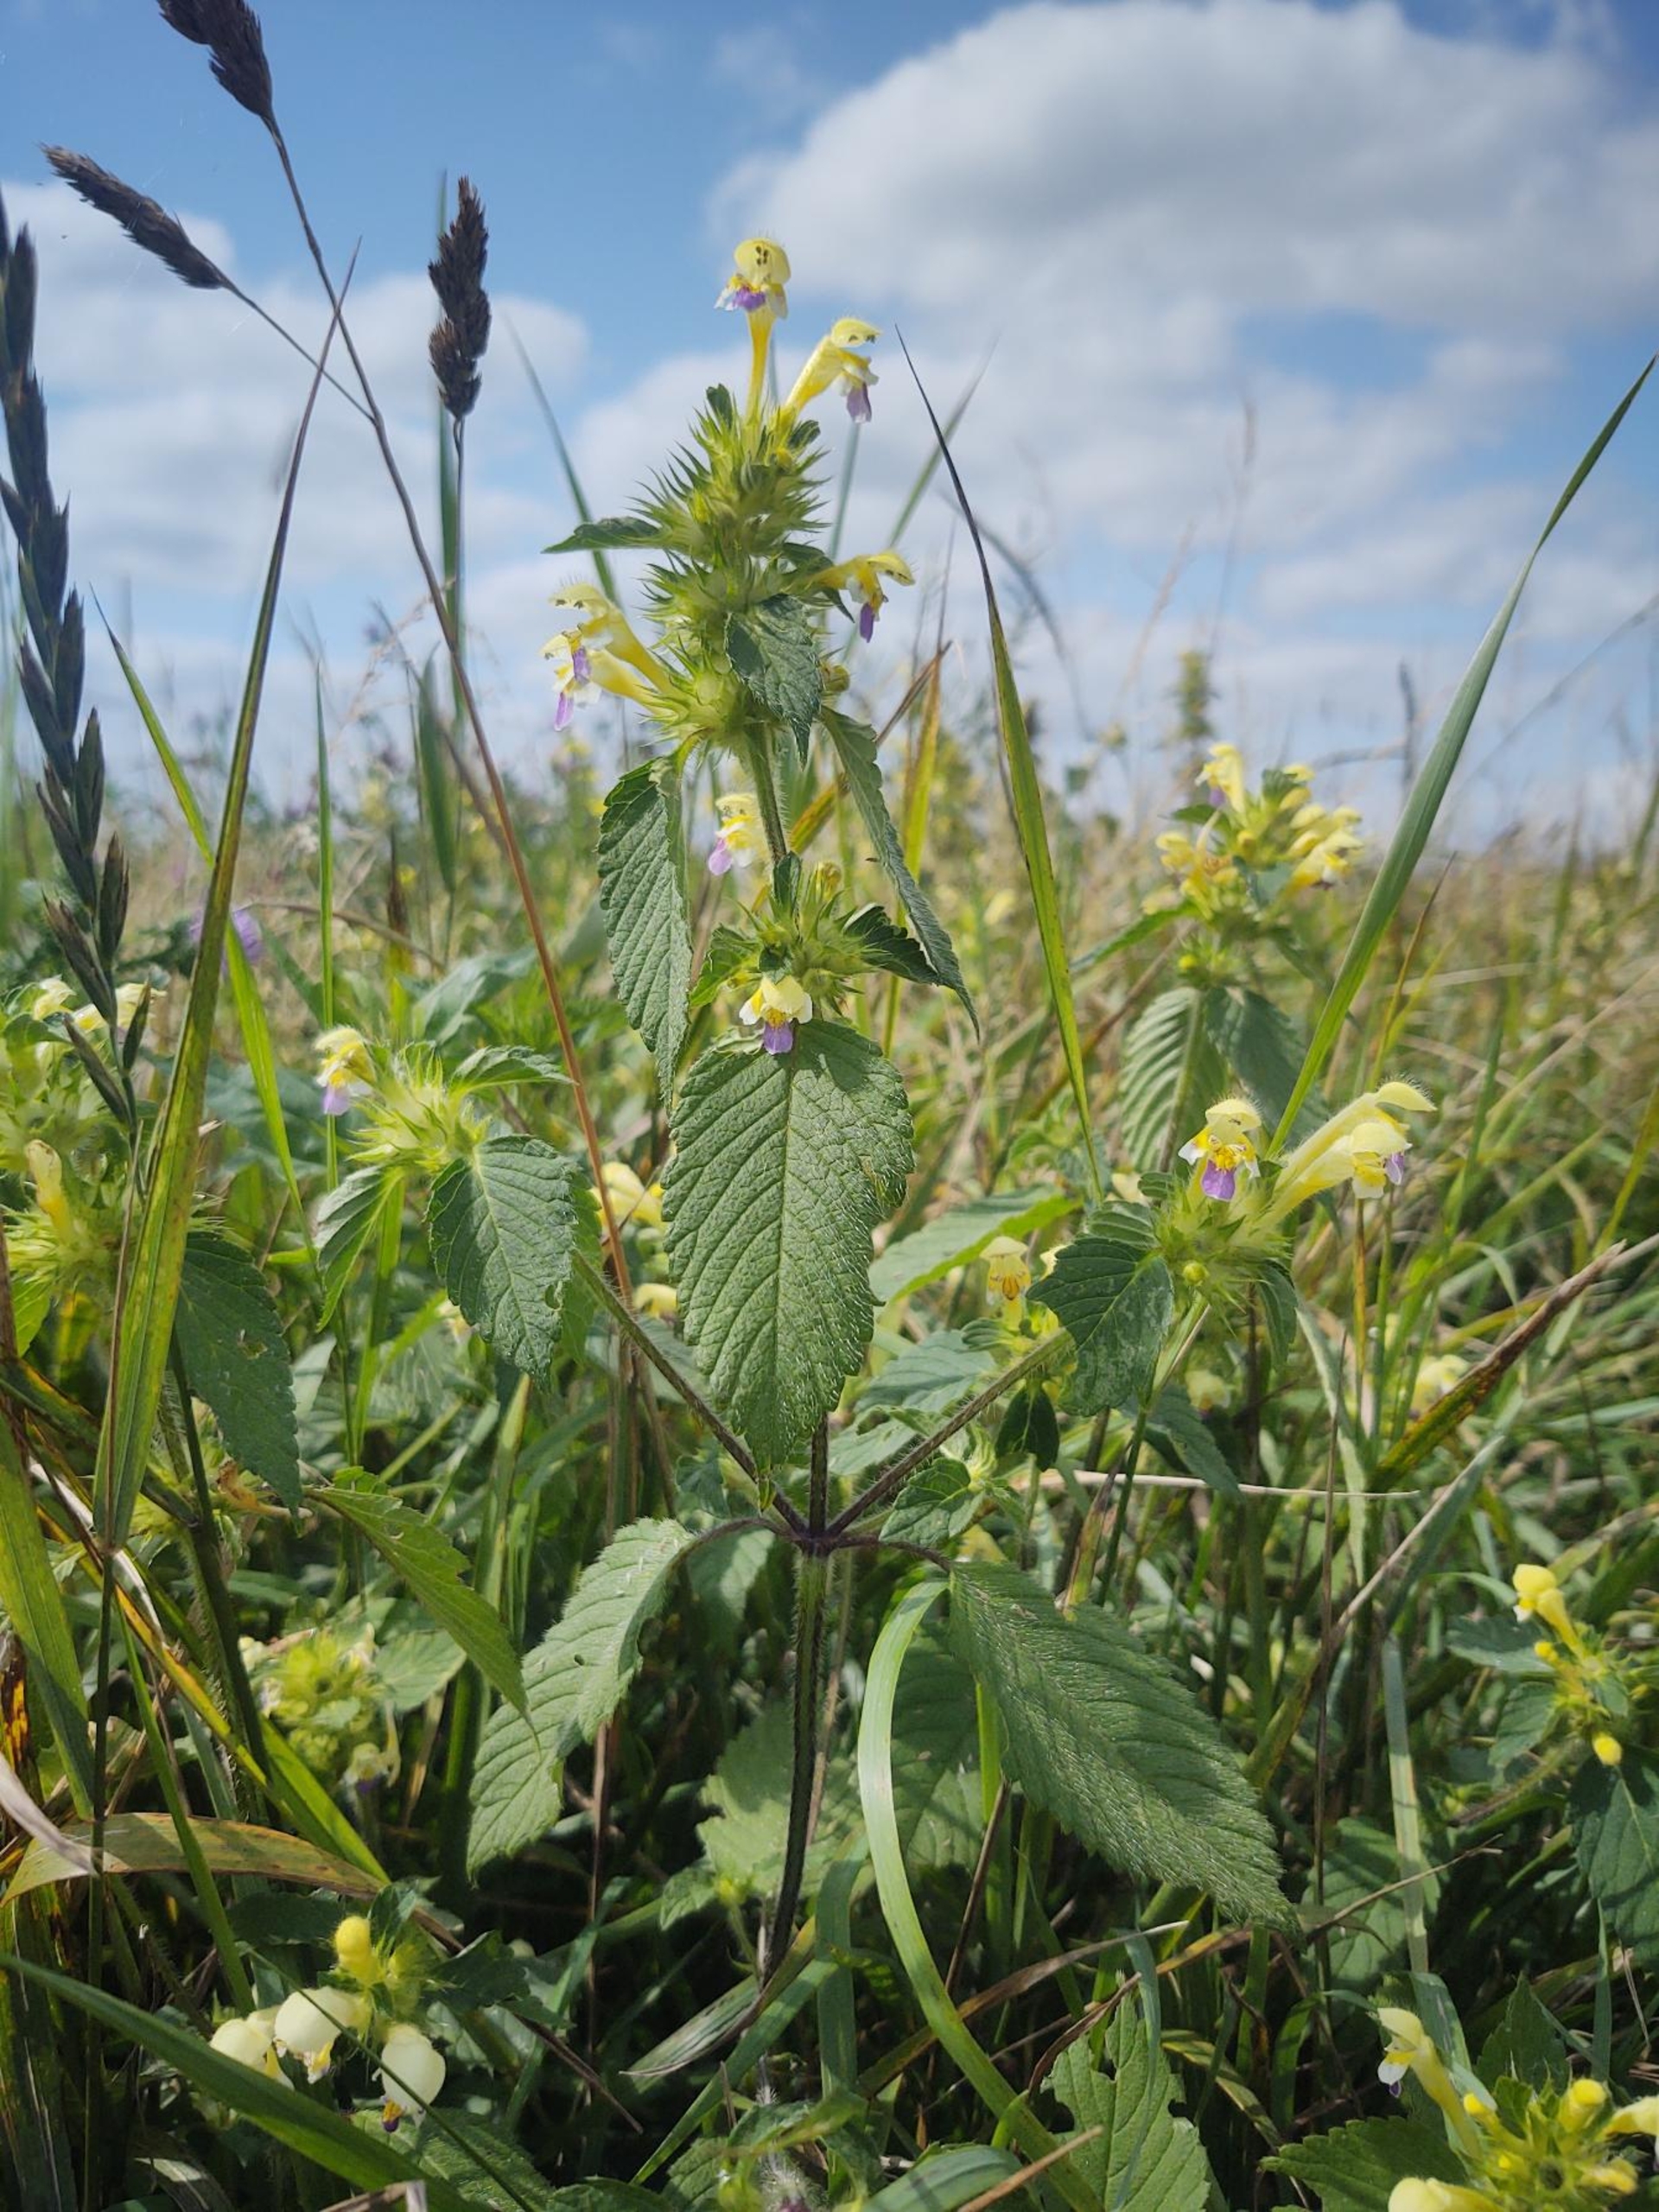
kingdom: Plantae
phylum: Tracheophyta
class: Magnoliopsida
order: Lamiales
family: Lamiaceae
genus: Galeopsis
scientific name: Galeopsis speciosa
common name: Hamp-hanekro
